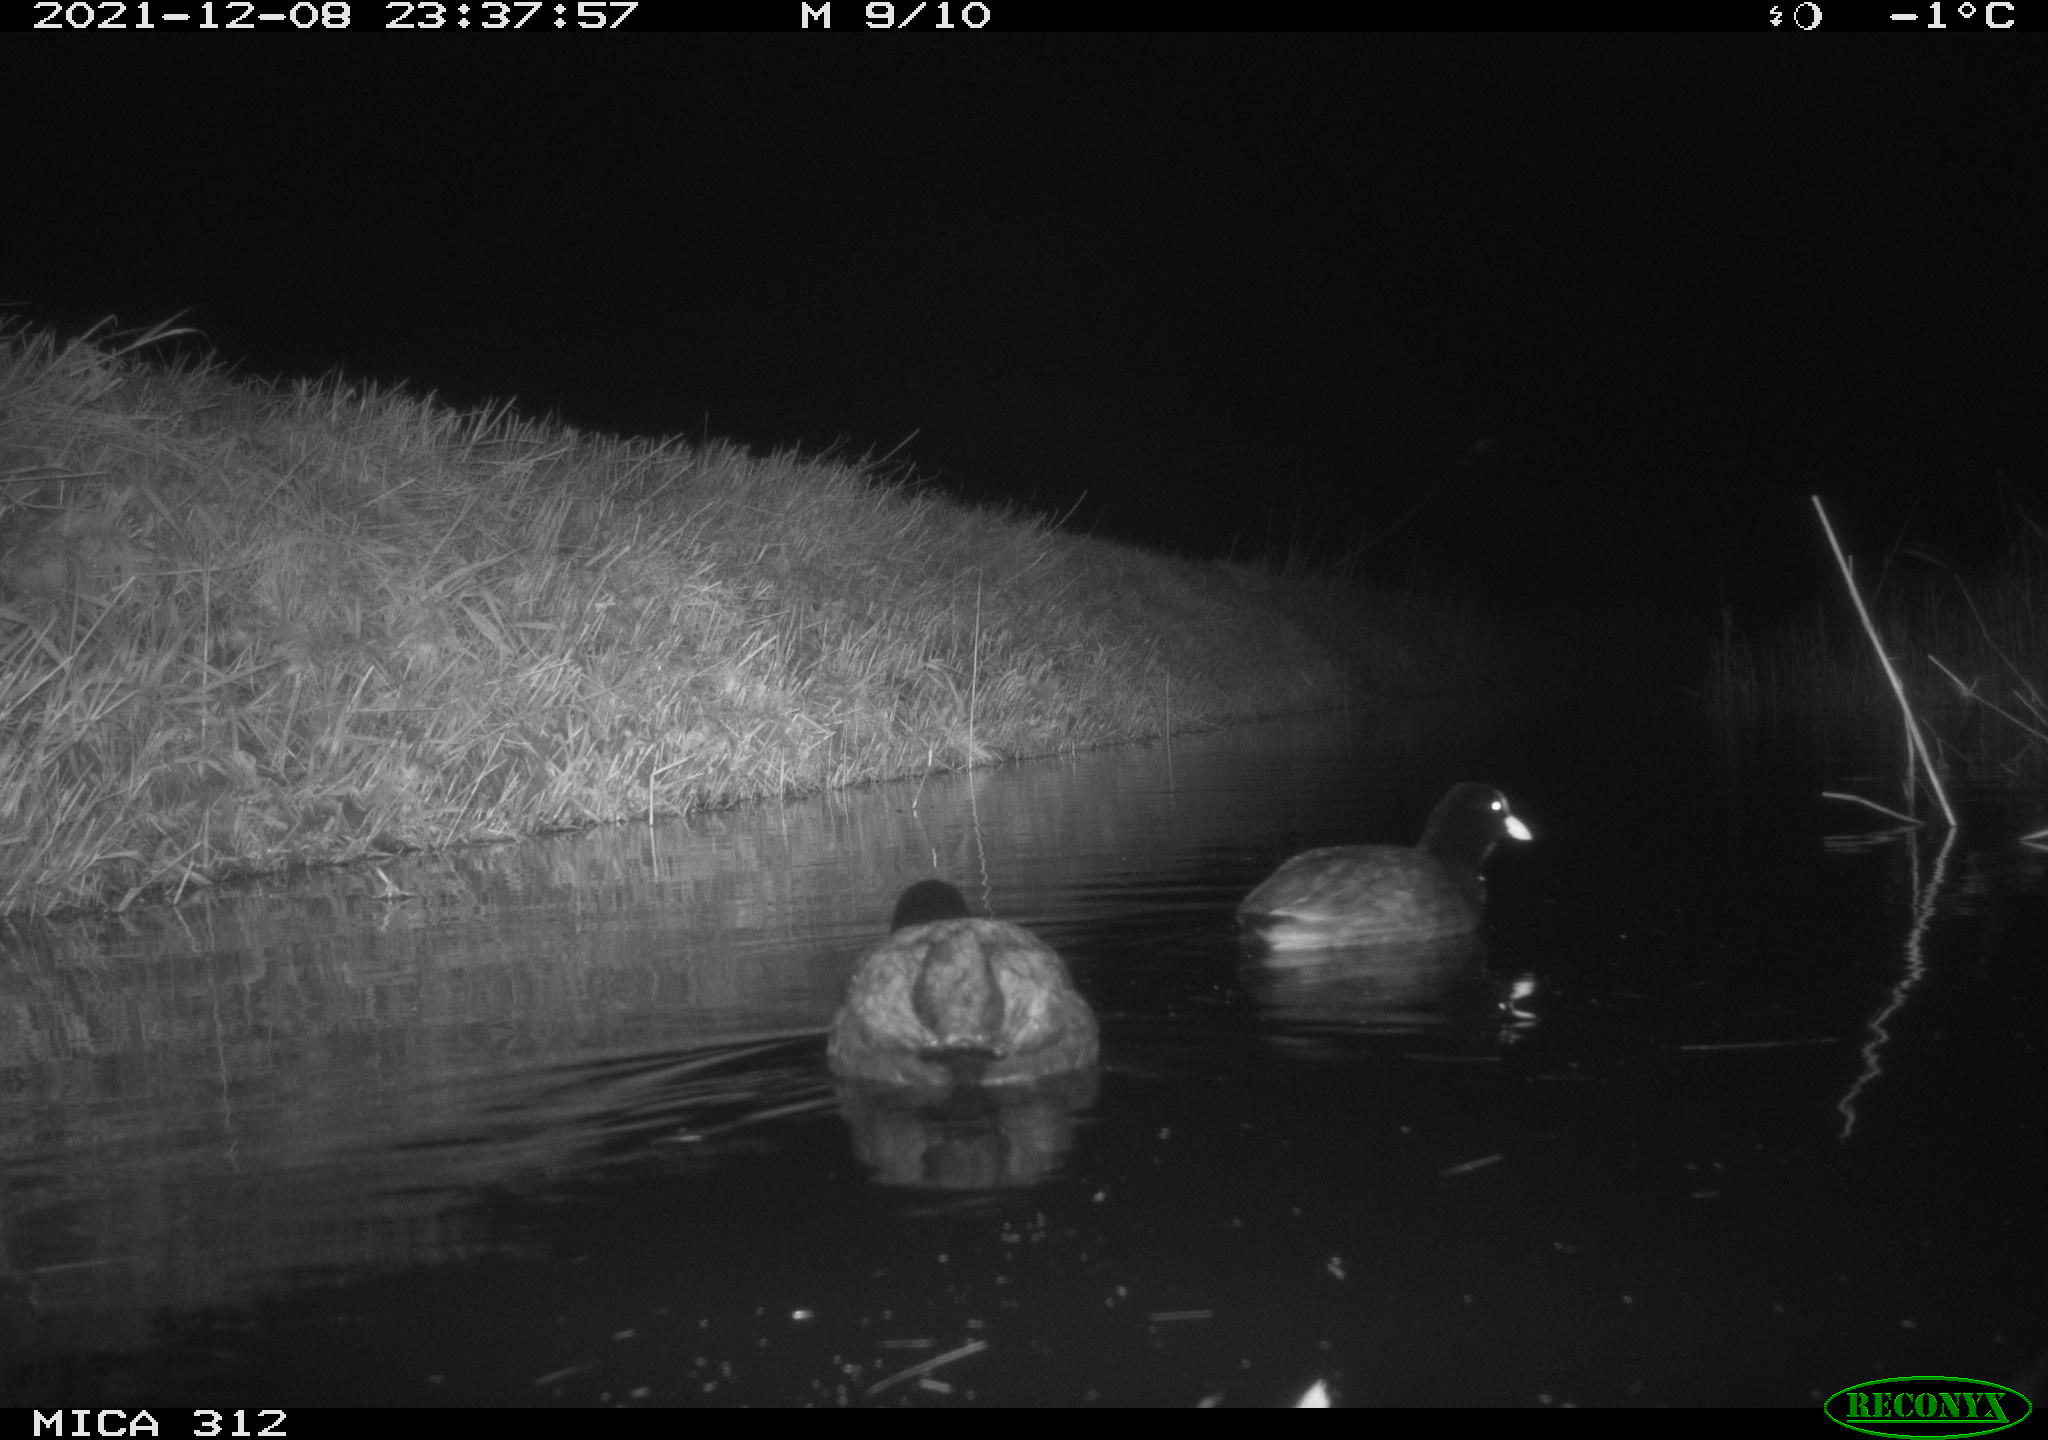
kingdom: Animalia
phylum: Chordata
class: Aves
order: Gruiformes
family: Rallidae
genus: Fulica
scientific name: Fulica atra
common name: Eurasian coot
